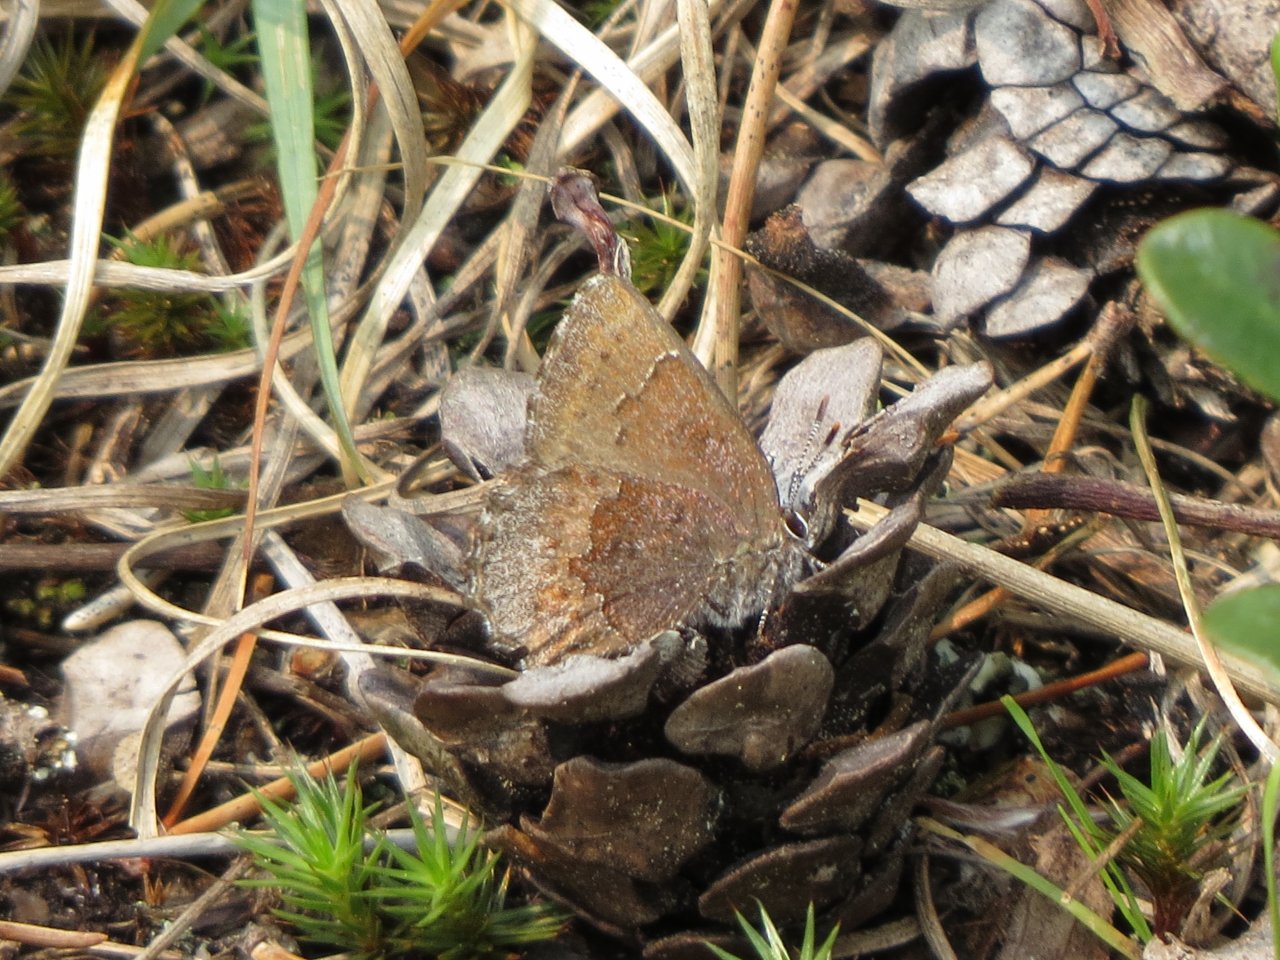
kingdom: Animalia
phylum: Arthropoda
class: Insecta
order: Lepidoptera
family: Lycaenidae
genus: Callophrys
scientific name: Callophrys polios
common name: Hoary Elfin
